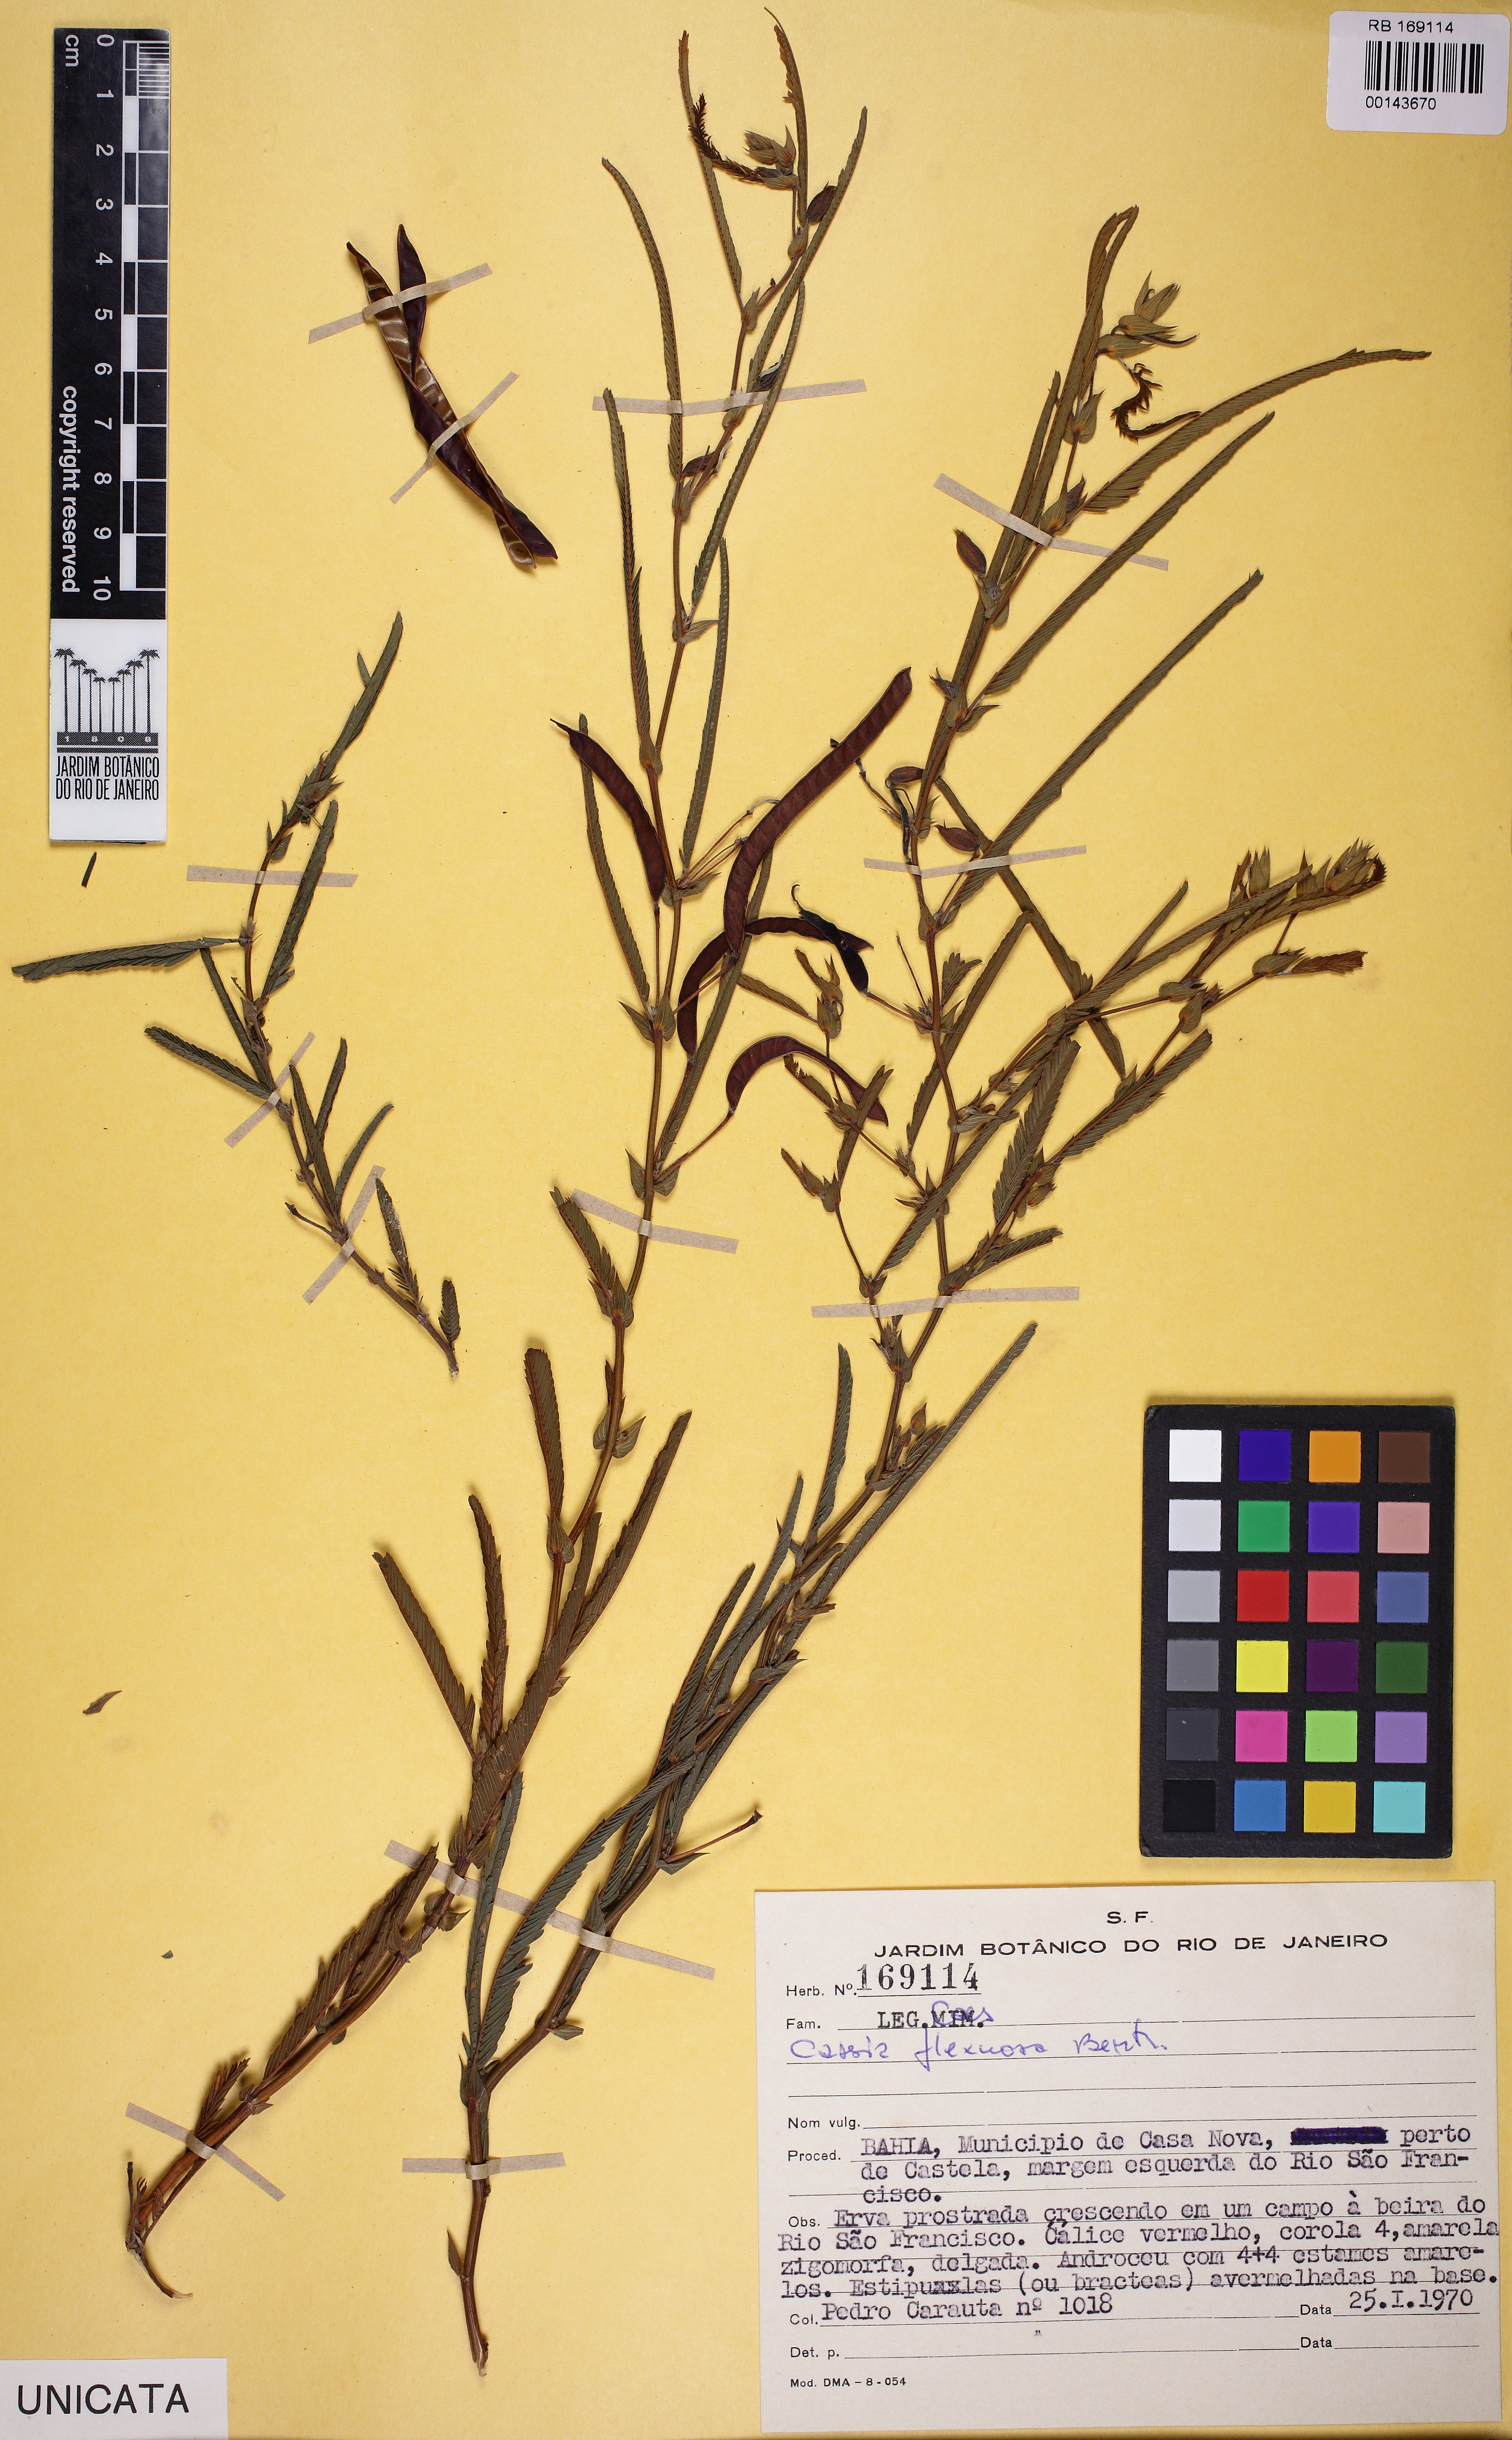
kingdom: Plantae
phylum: Tracheophyta
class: Magnoliopsida
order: Fabales
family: Fabaceae
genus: Chamaecrista
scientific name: Chamaecrista flexuosa
